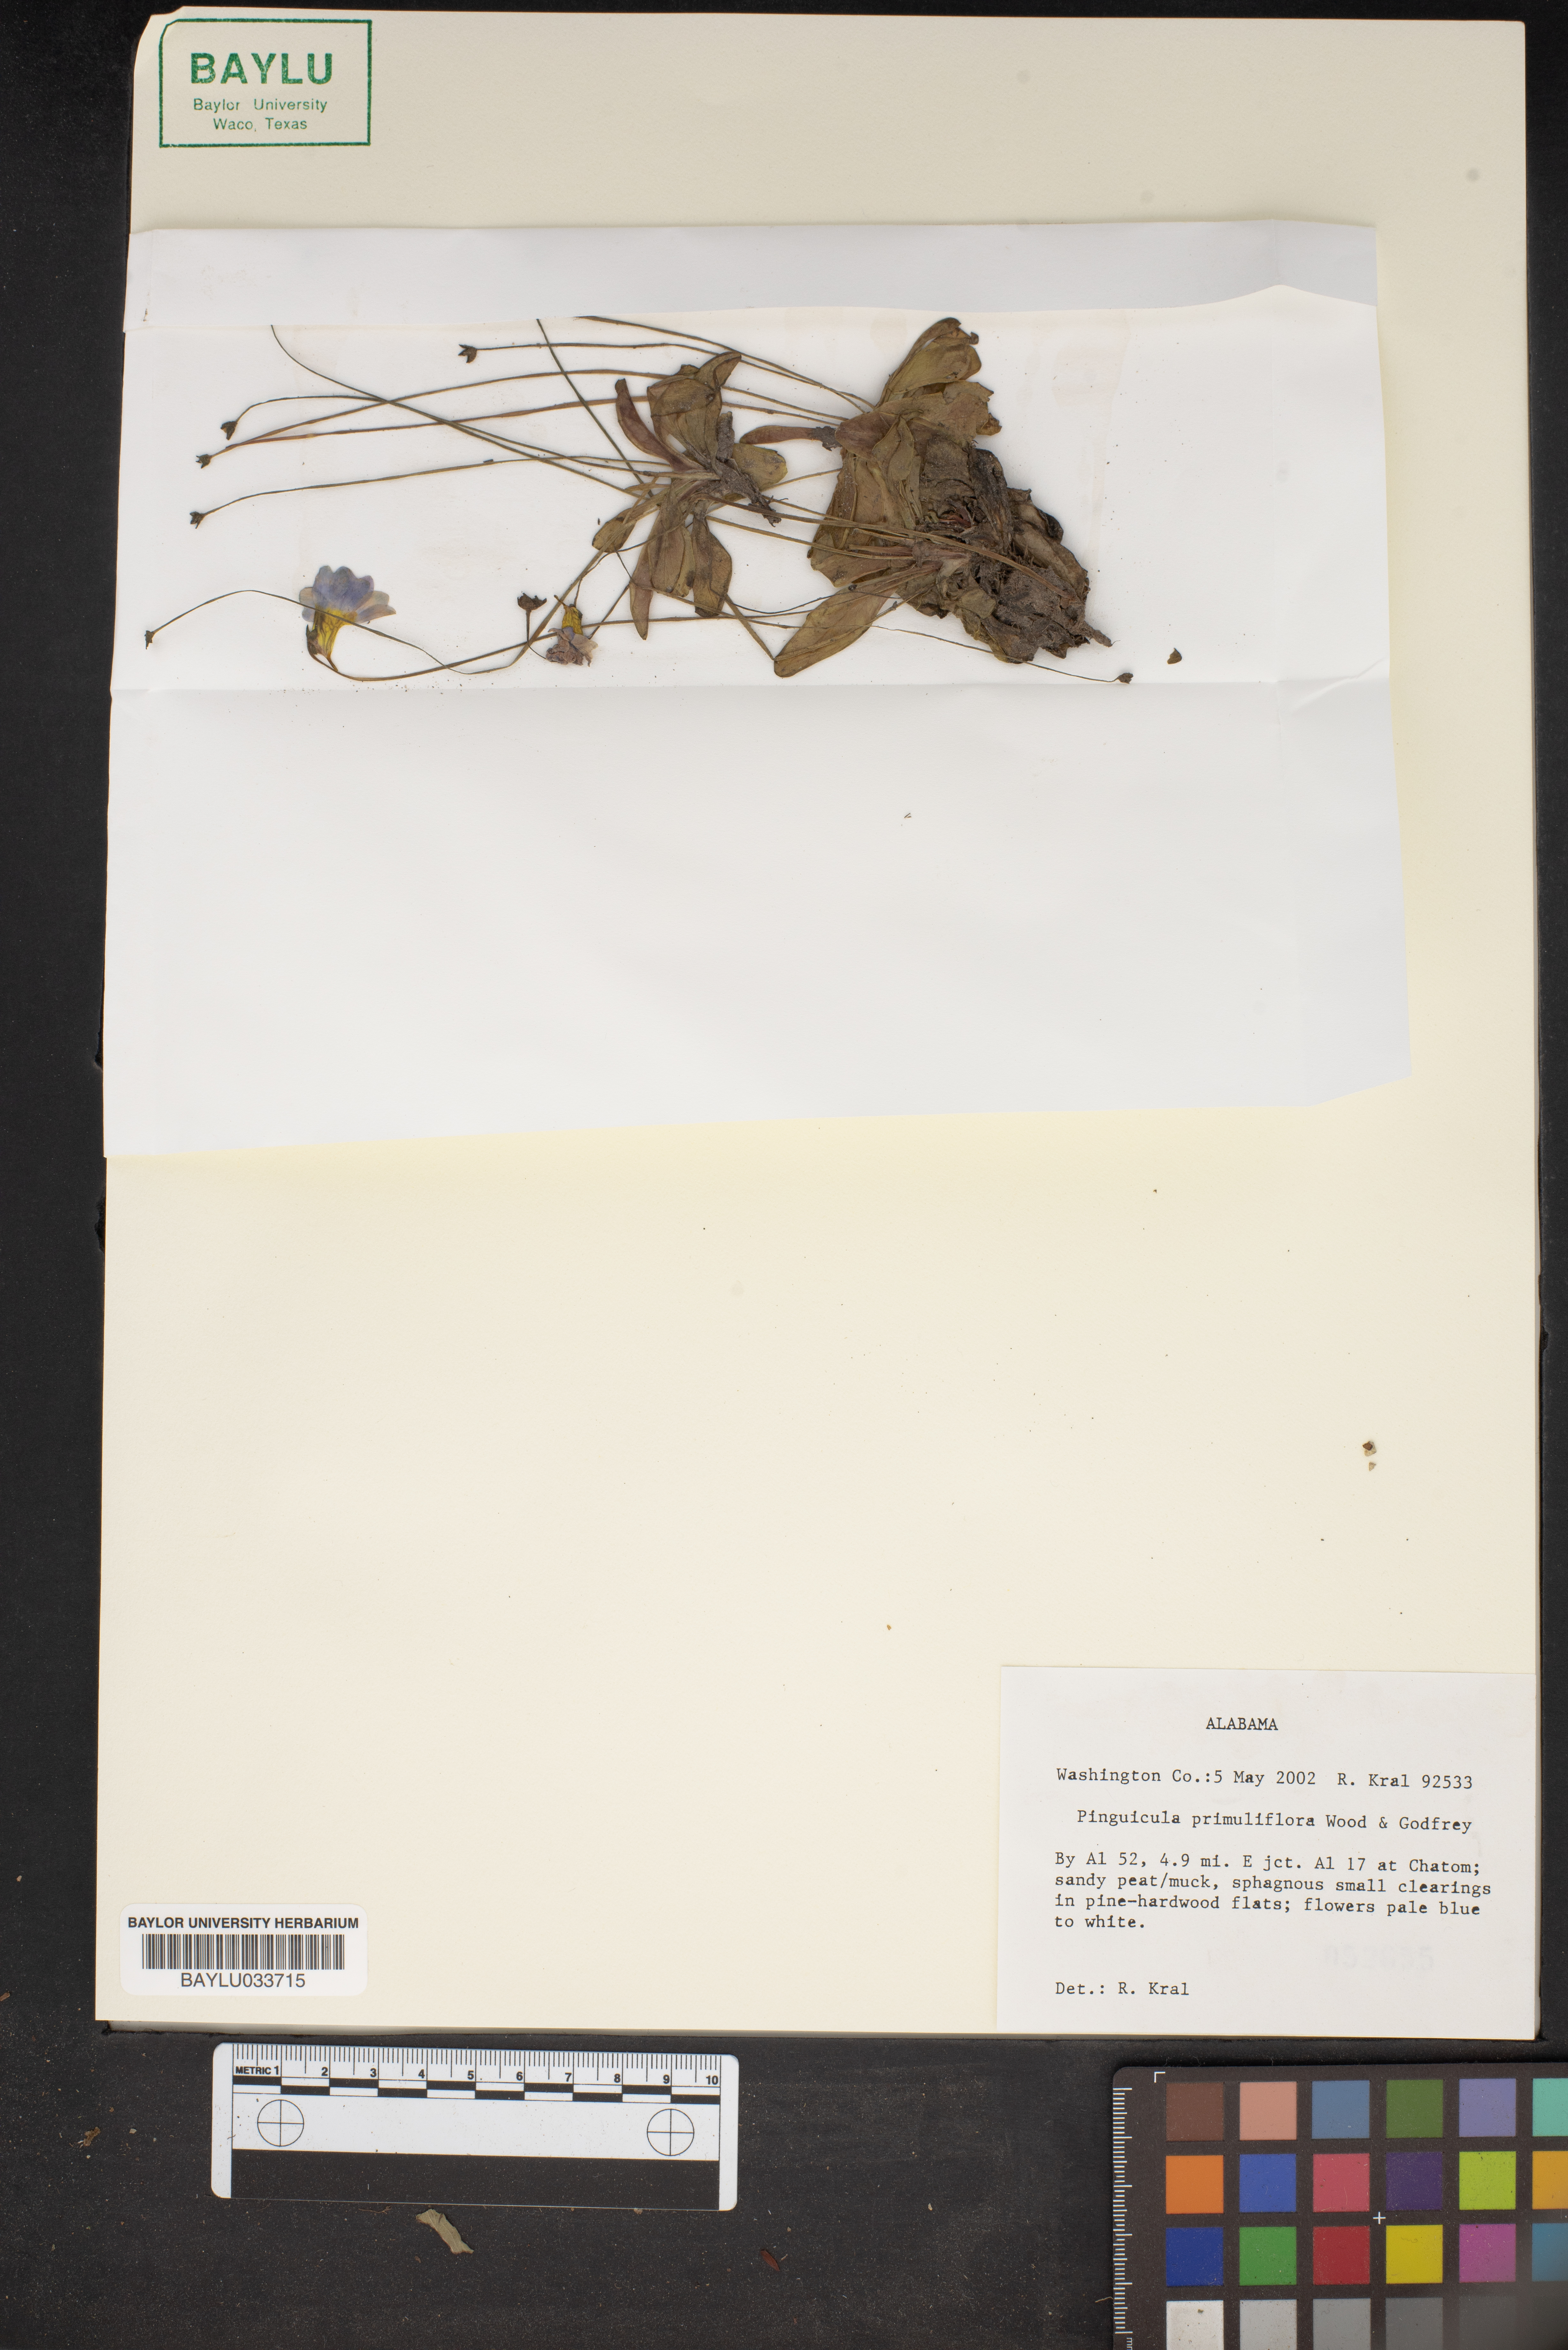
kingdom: Plantae
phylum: Tracheophyta
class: Magnoliopsida
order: Lamiales
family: Lentibulariaceae
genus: Pinguicula
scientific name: Pinguicula primuliflora
